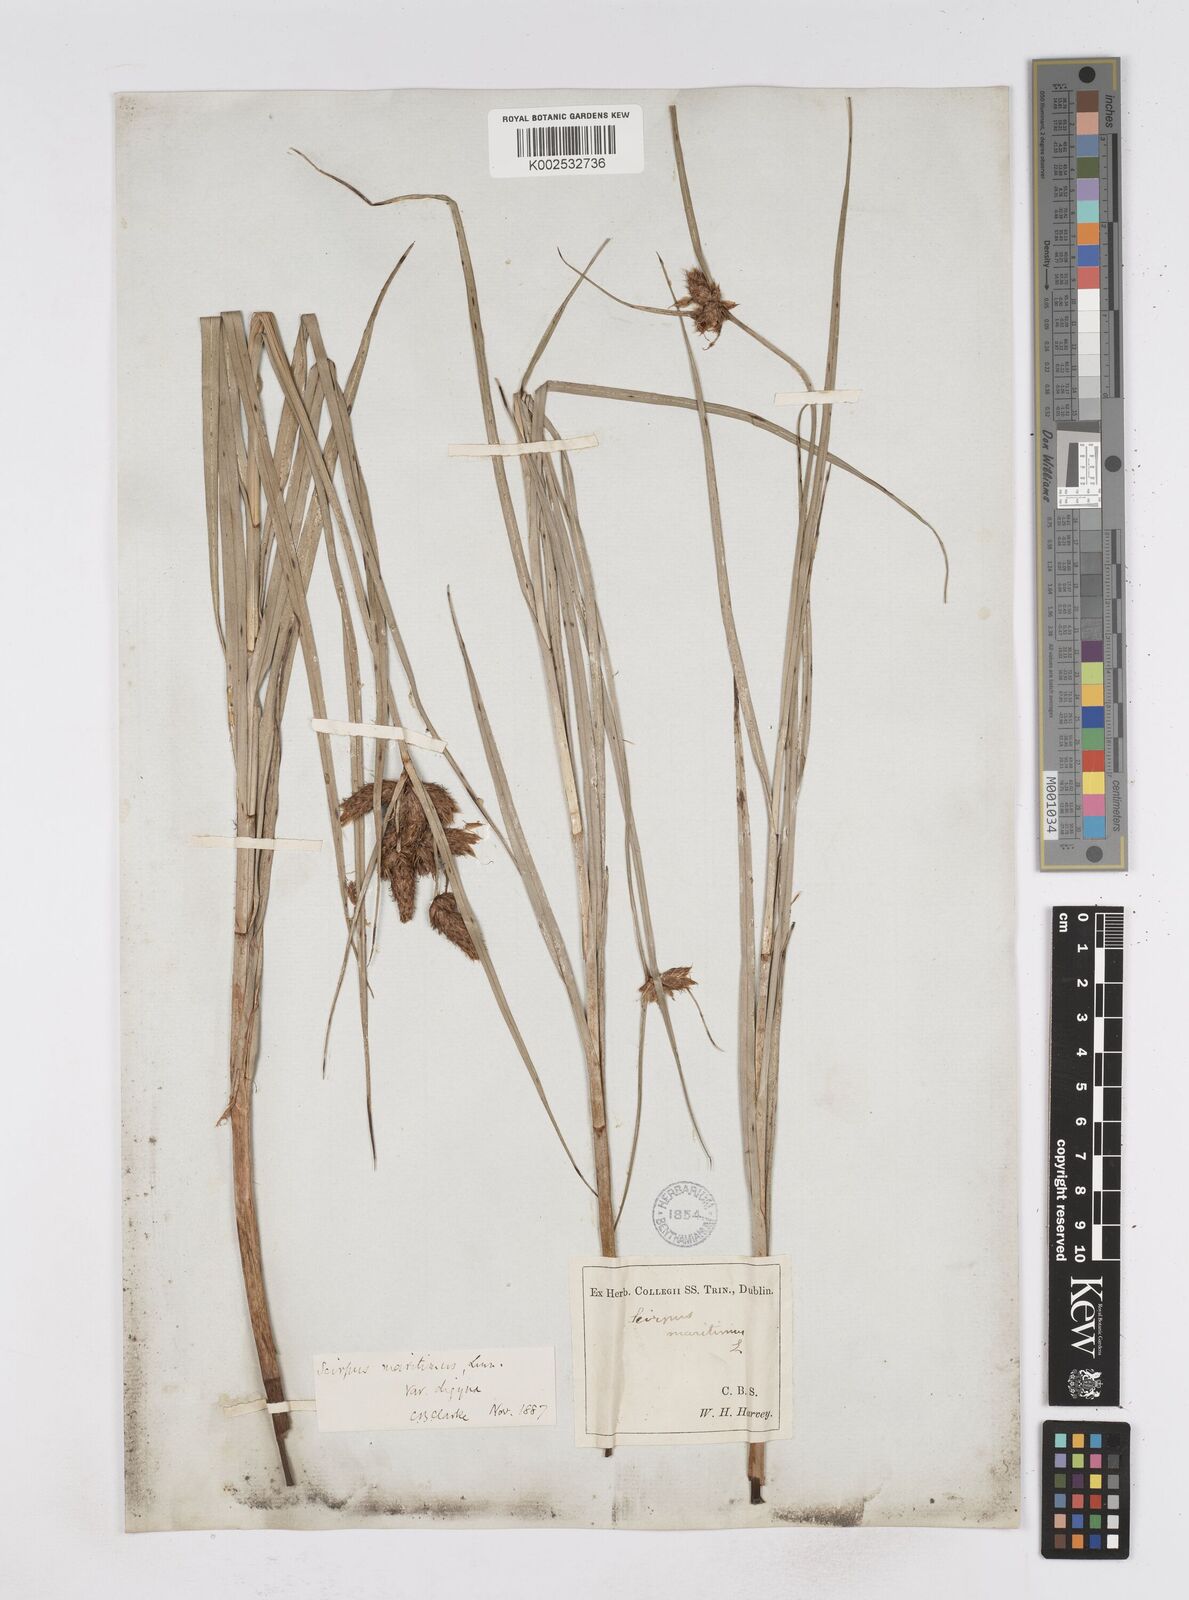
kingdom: Plantae
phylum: Tracheophyta
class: Liliopsida
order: Poales
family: Cyperaceae
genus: Bolboschoenus
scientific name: Bolboschoenus maritimus
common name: Sea club-rush
